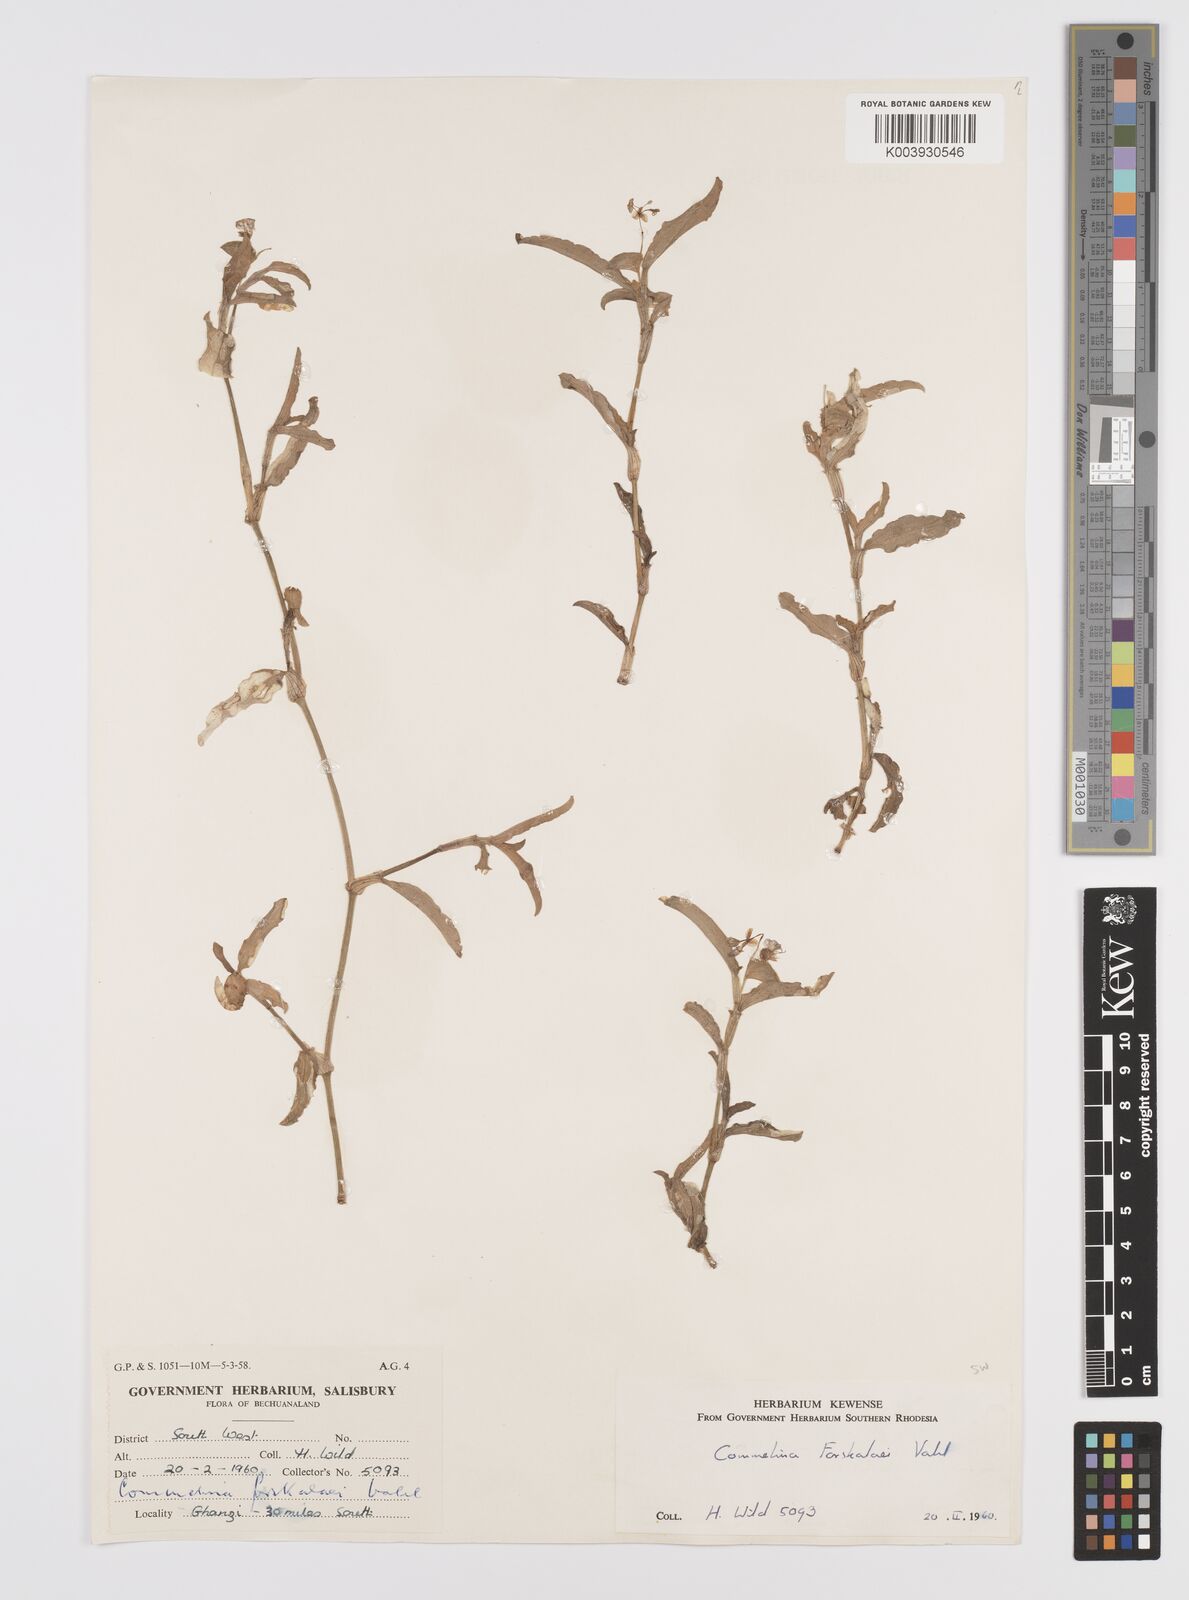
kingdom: Plantae
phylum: Tracheophyta
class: Liliopsida
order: Commelinales
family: Commelinaceae
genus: Commelina
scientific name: Commelina forskaolii
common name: Rat's ear
